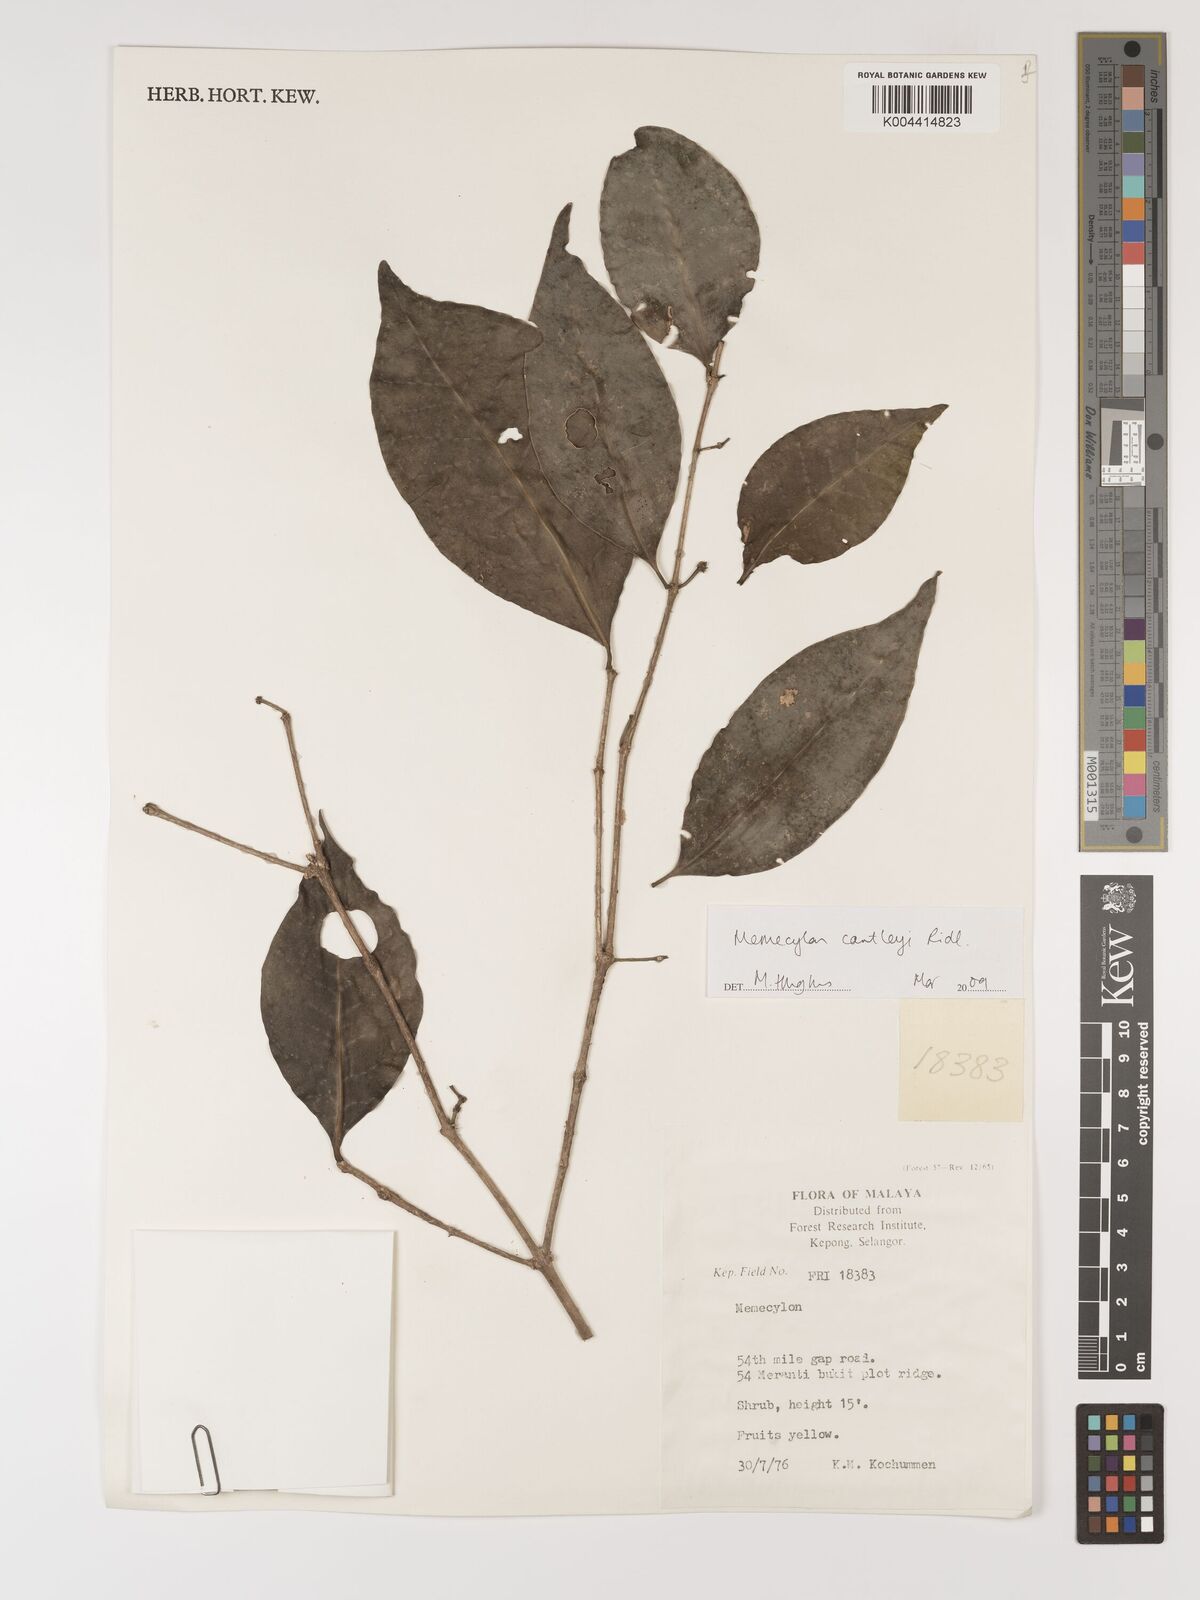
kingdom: Plantae
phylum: Tracheophyta
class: Magnoliopsida
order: Myrtales
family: Melastomataceae
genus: Memecylon
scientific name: Memecylon cantleyi
